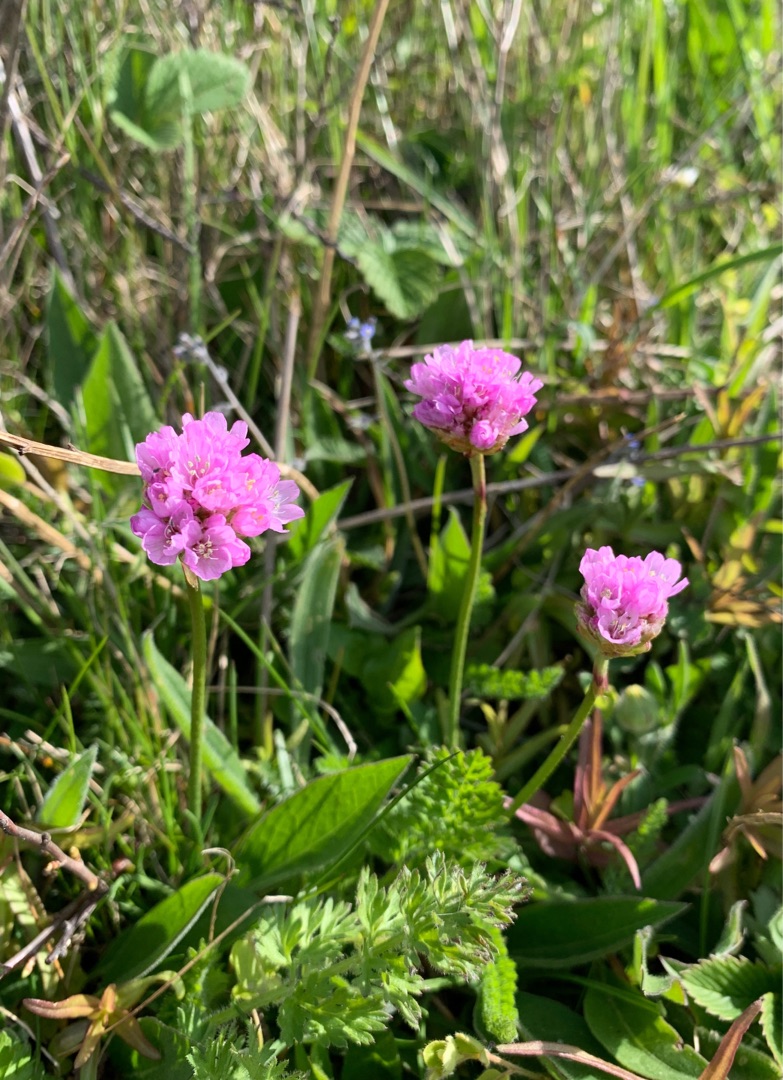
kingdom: Plantae
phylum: Tracheophyta
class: Magnoliopsida
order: Caryophyllales
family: Plumbaginaceae
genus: Armeria
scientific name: Armeria maritima
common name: Engelskgræs
